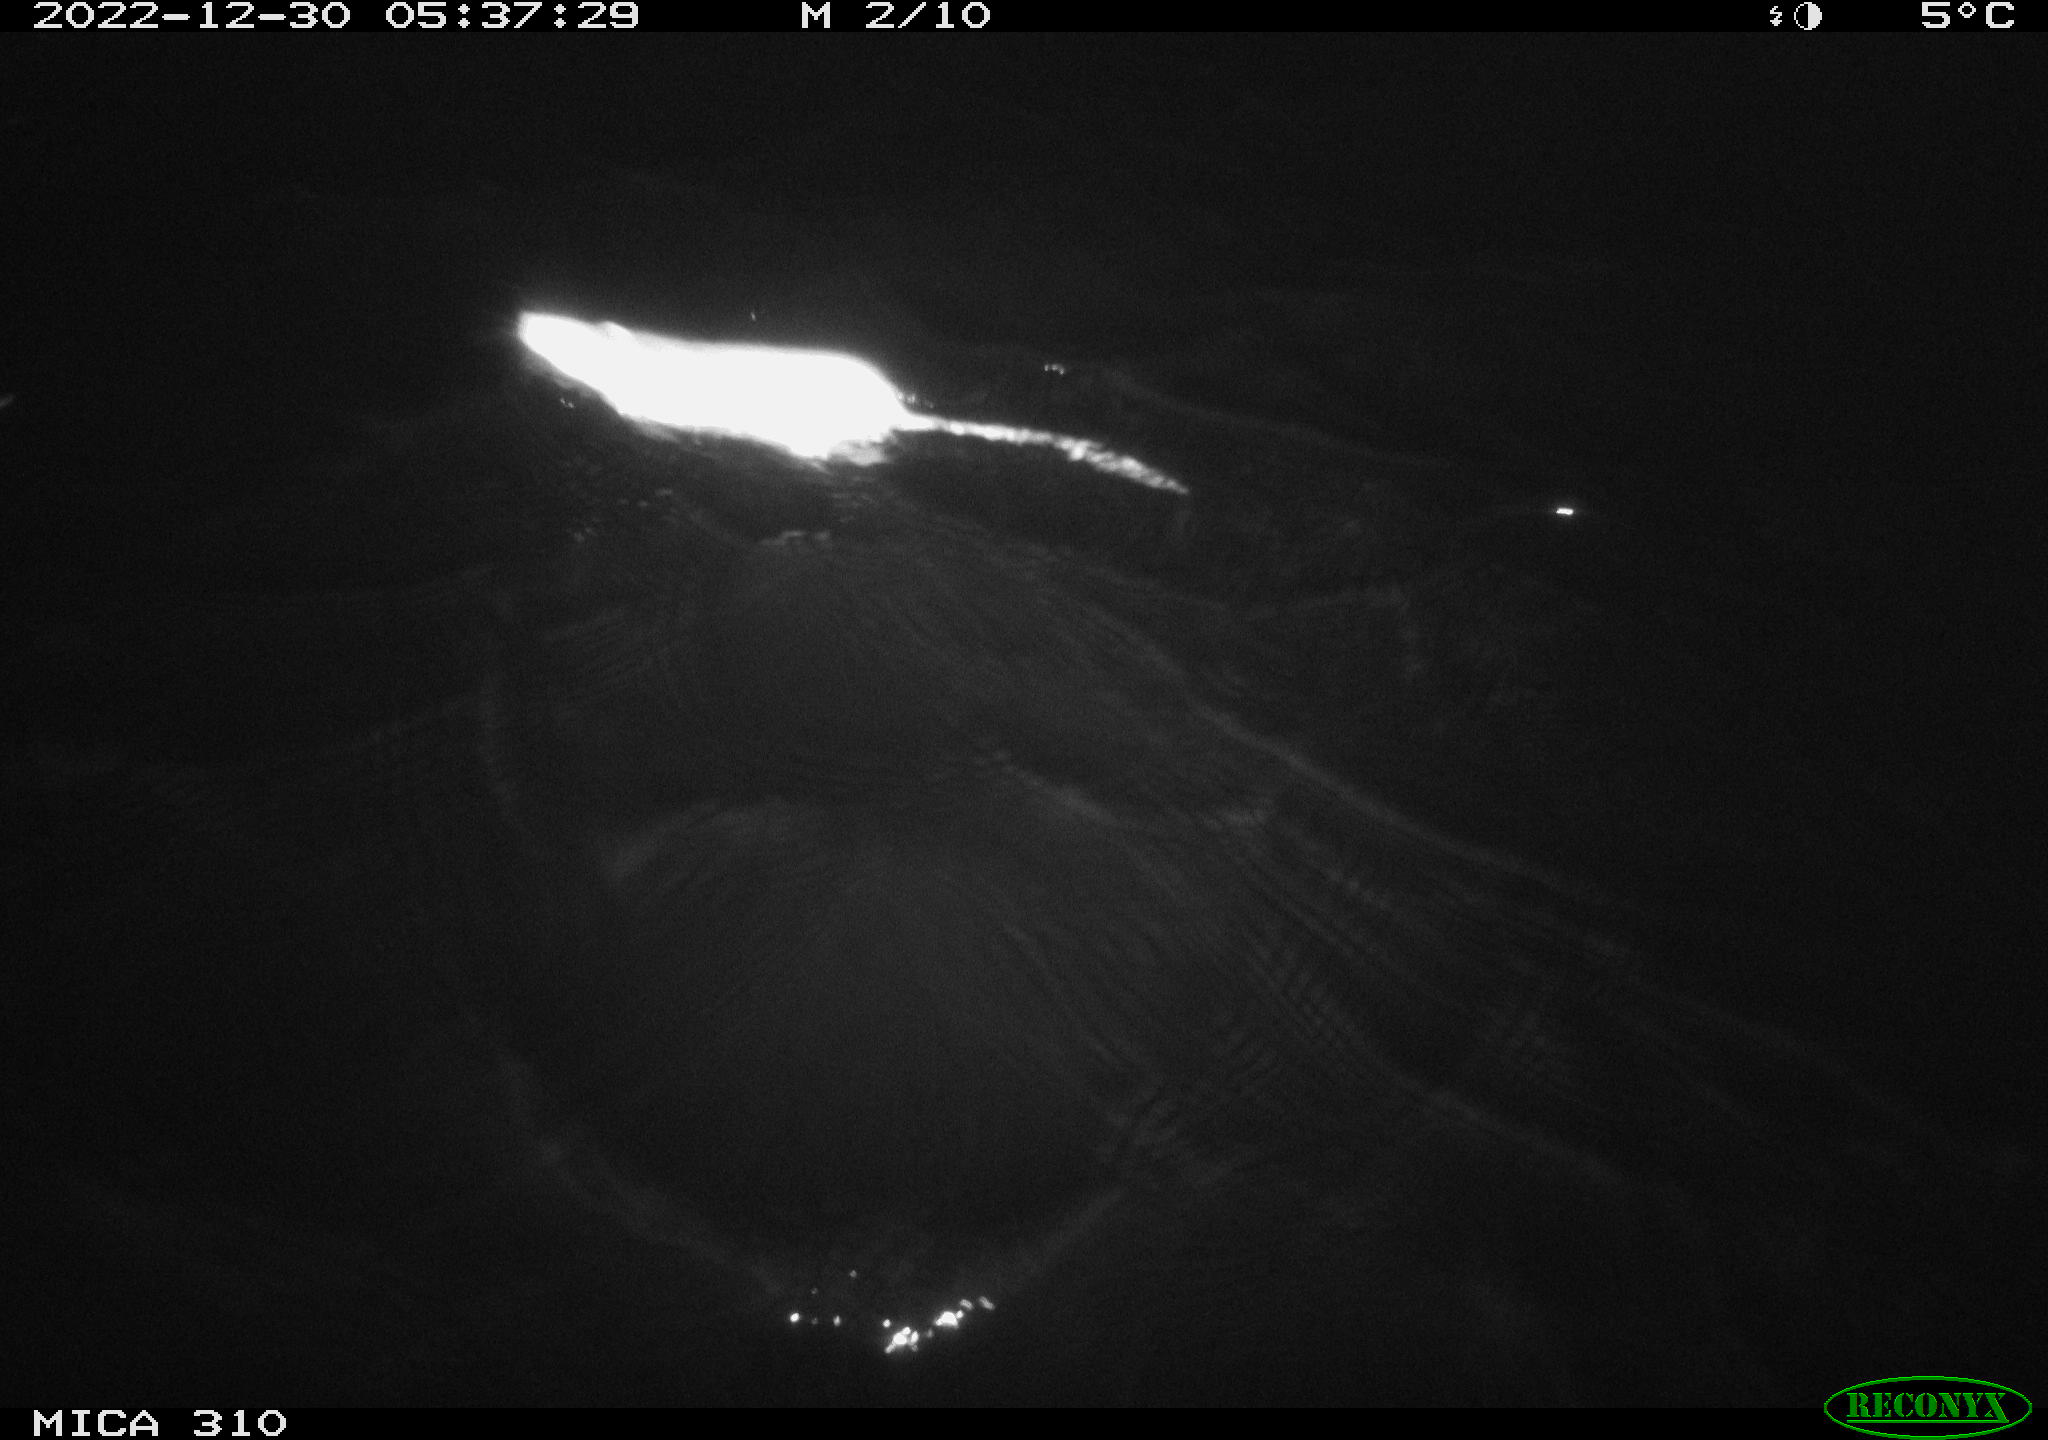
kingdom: Animalia
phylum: Chordata
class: Mammalia
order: Rodentia
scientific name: Rodentia
